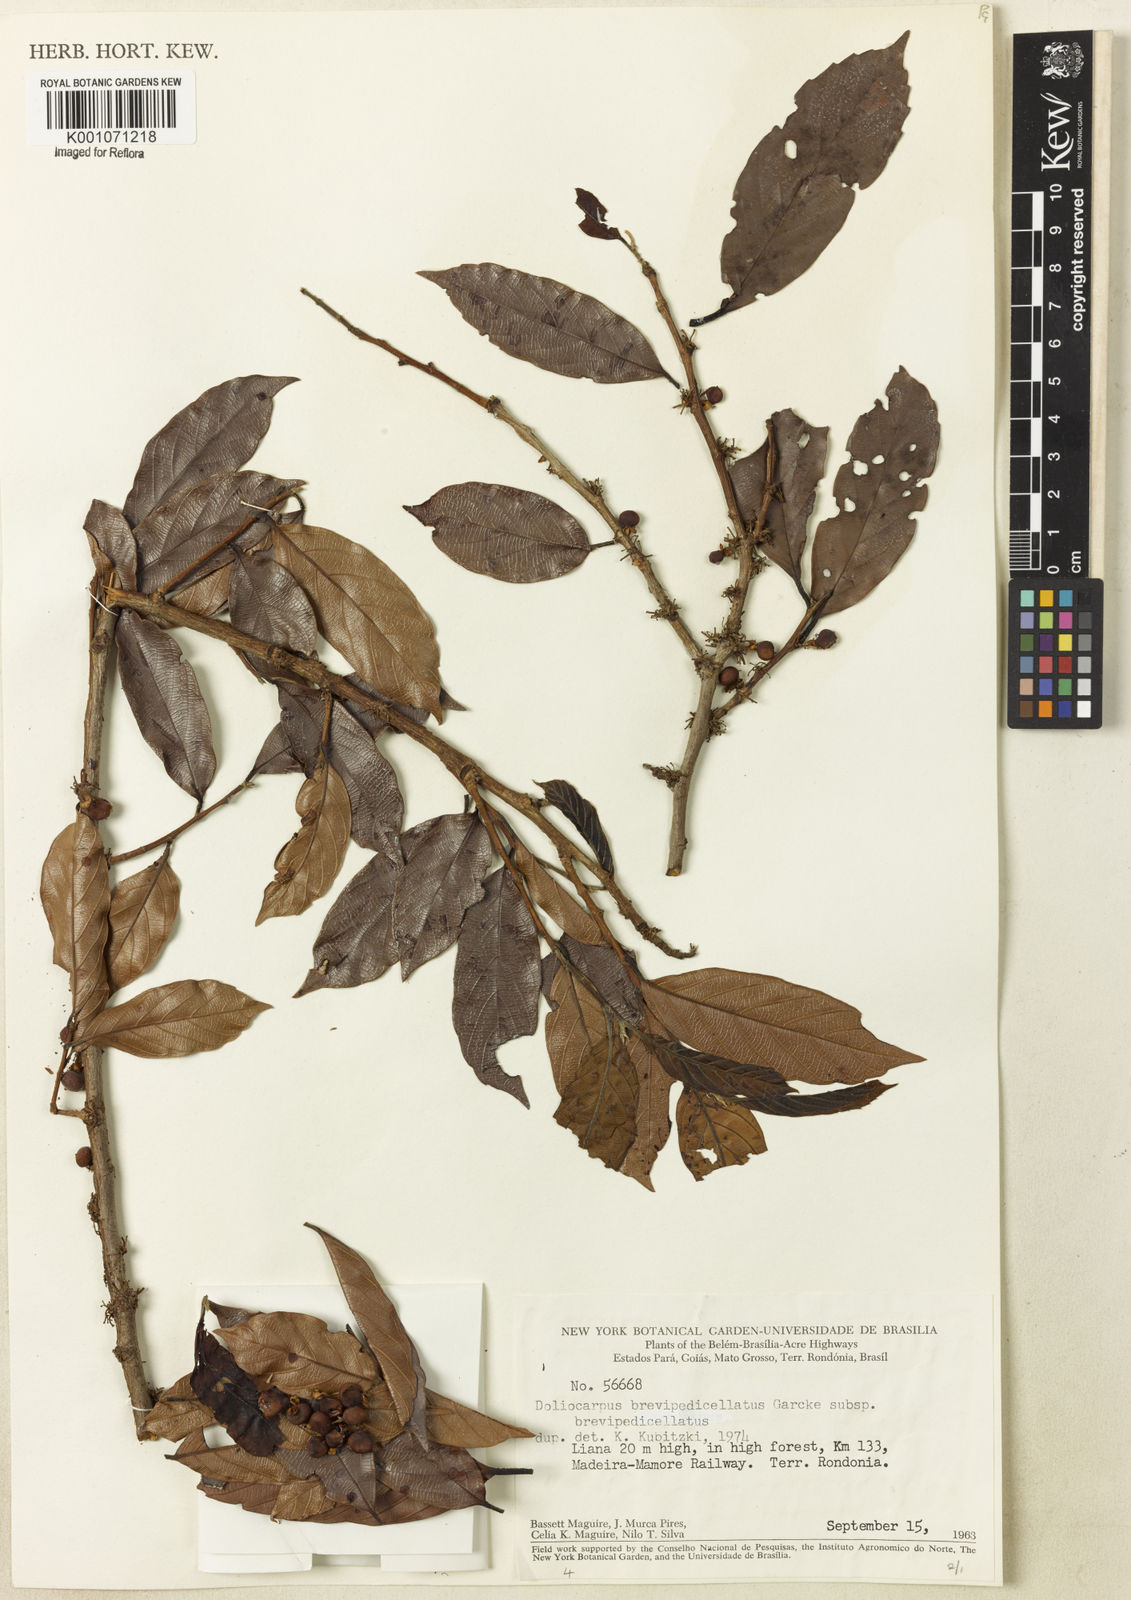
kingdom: Plantae
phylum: Tracheophyta
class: Magnoliopsida
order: Dilleniales
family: Dilleniaceae
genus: Doliocarpus
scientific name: Doliocarpus brevipedicellatus
